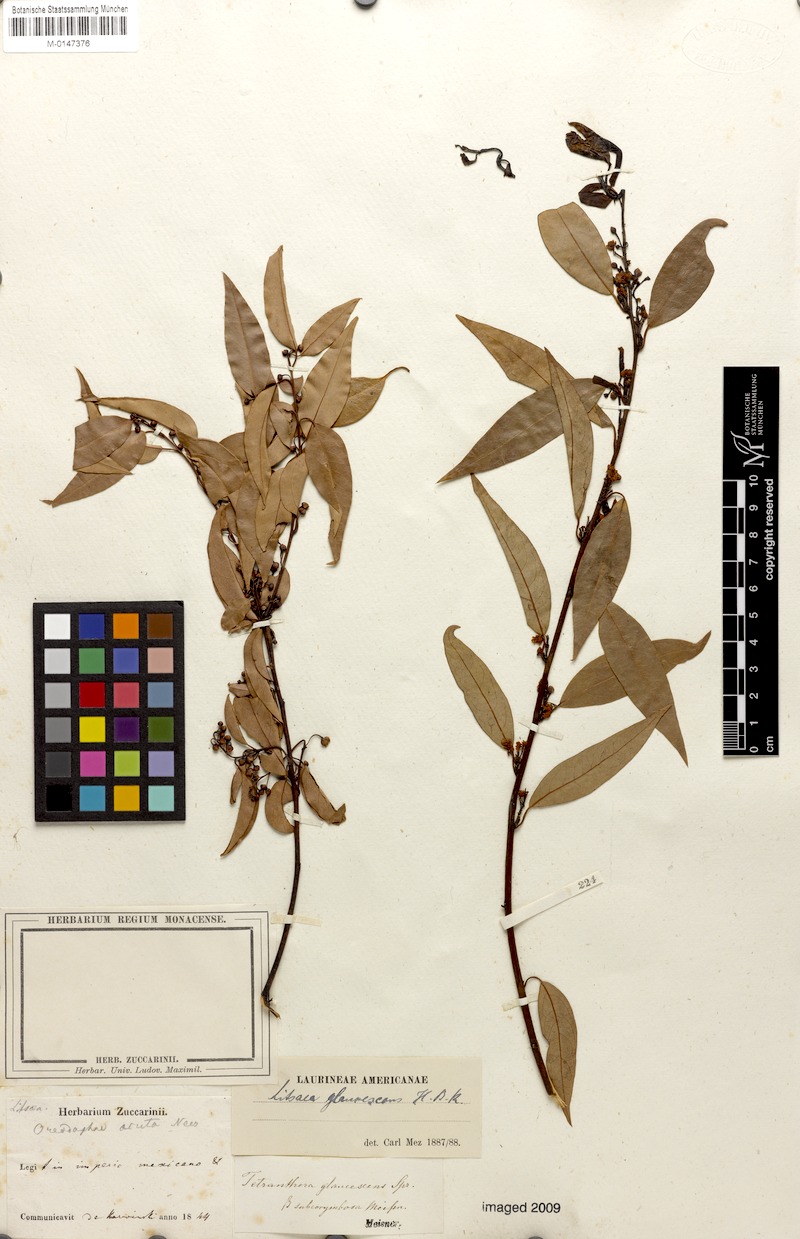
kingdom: Plantae
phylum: Tracheophyta
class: Magnoliopsida
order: Laurales
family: Lauraceae
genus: Licaria
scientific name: Licaria triandra
